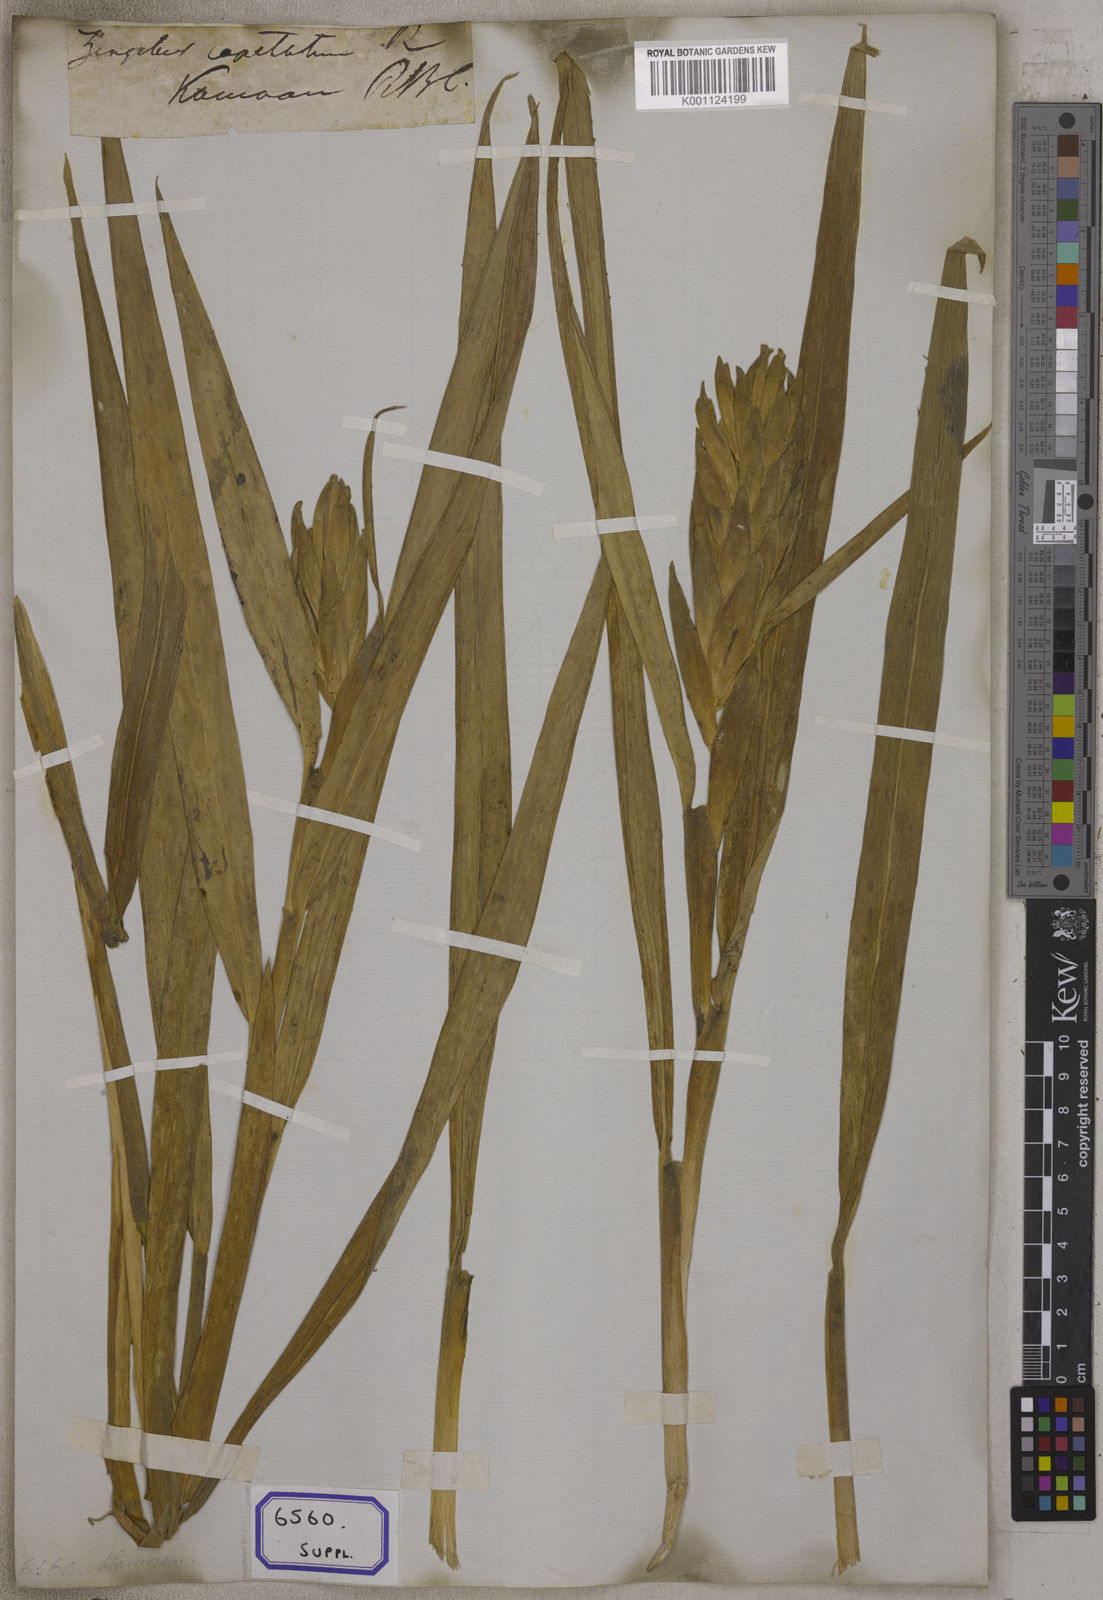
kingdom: Plantae
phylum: Tracheophyta
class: Liliopsida
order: Zingiberales
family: Zingiberaceae
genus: Zingiber
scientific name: Zingiber capitatum
